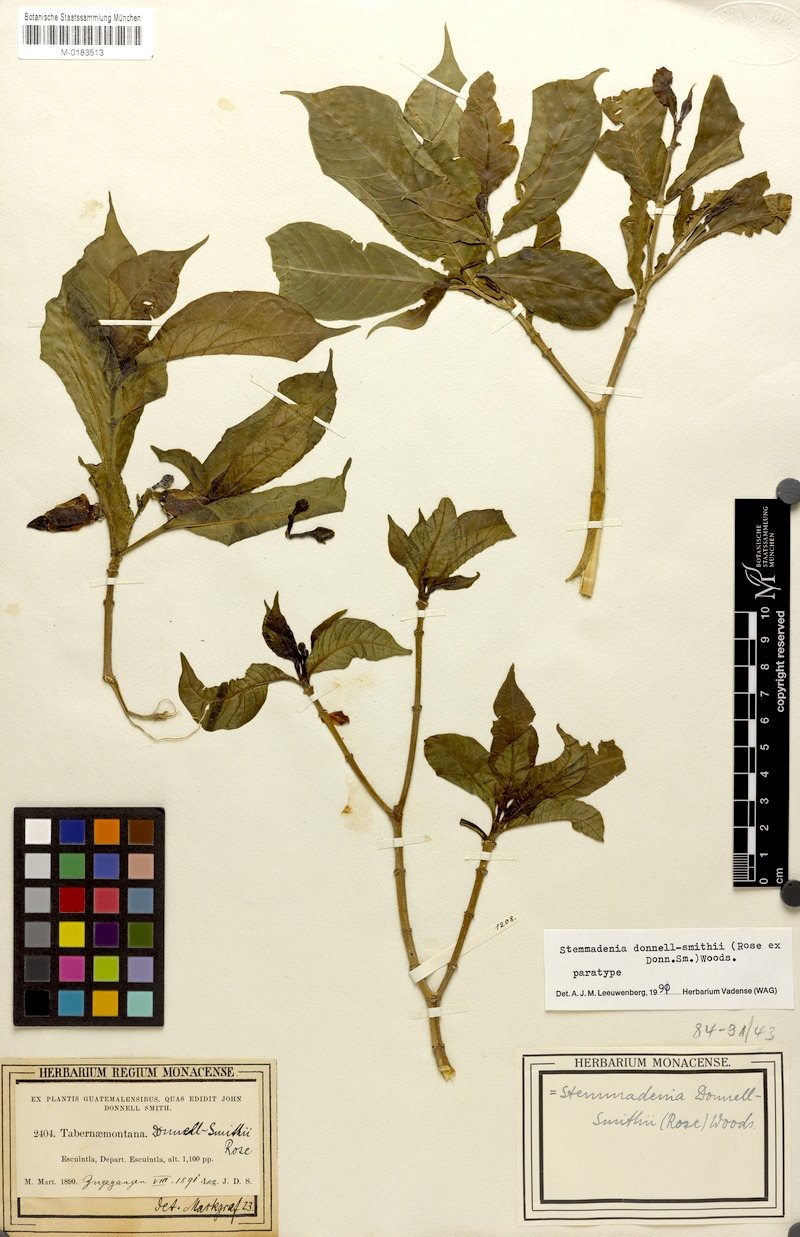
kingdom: Plantae
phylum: Tracheophyta
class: Magnoliopsida
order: Gentianales
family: Apocynaceae
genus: Tabernaemontana
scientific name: Tabernaemontana donnell-smithii
